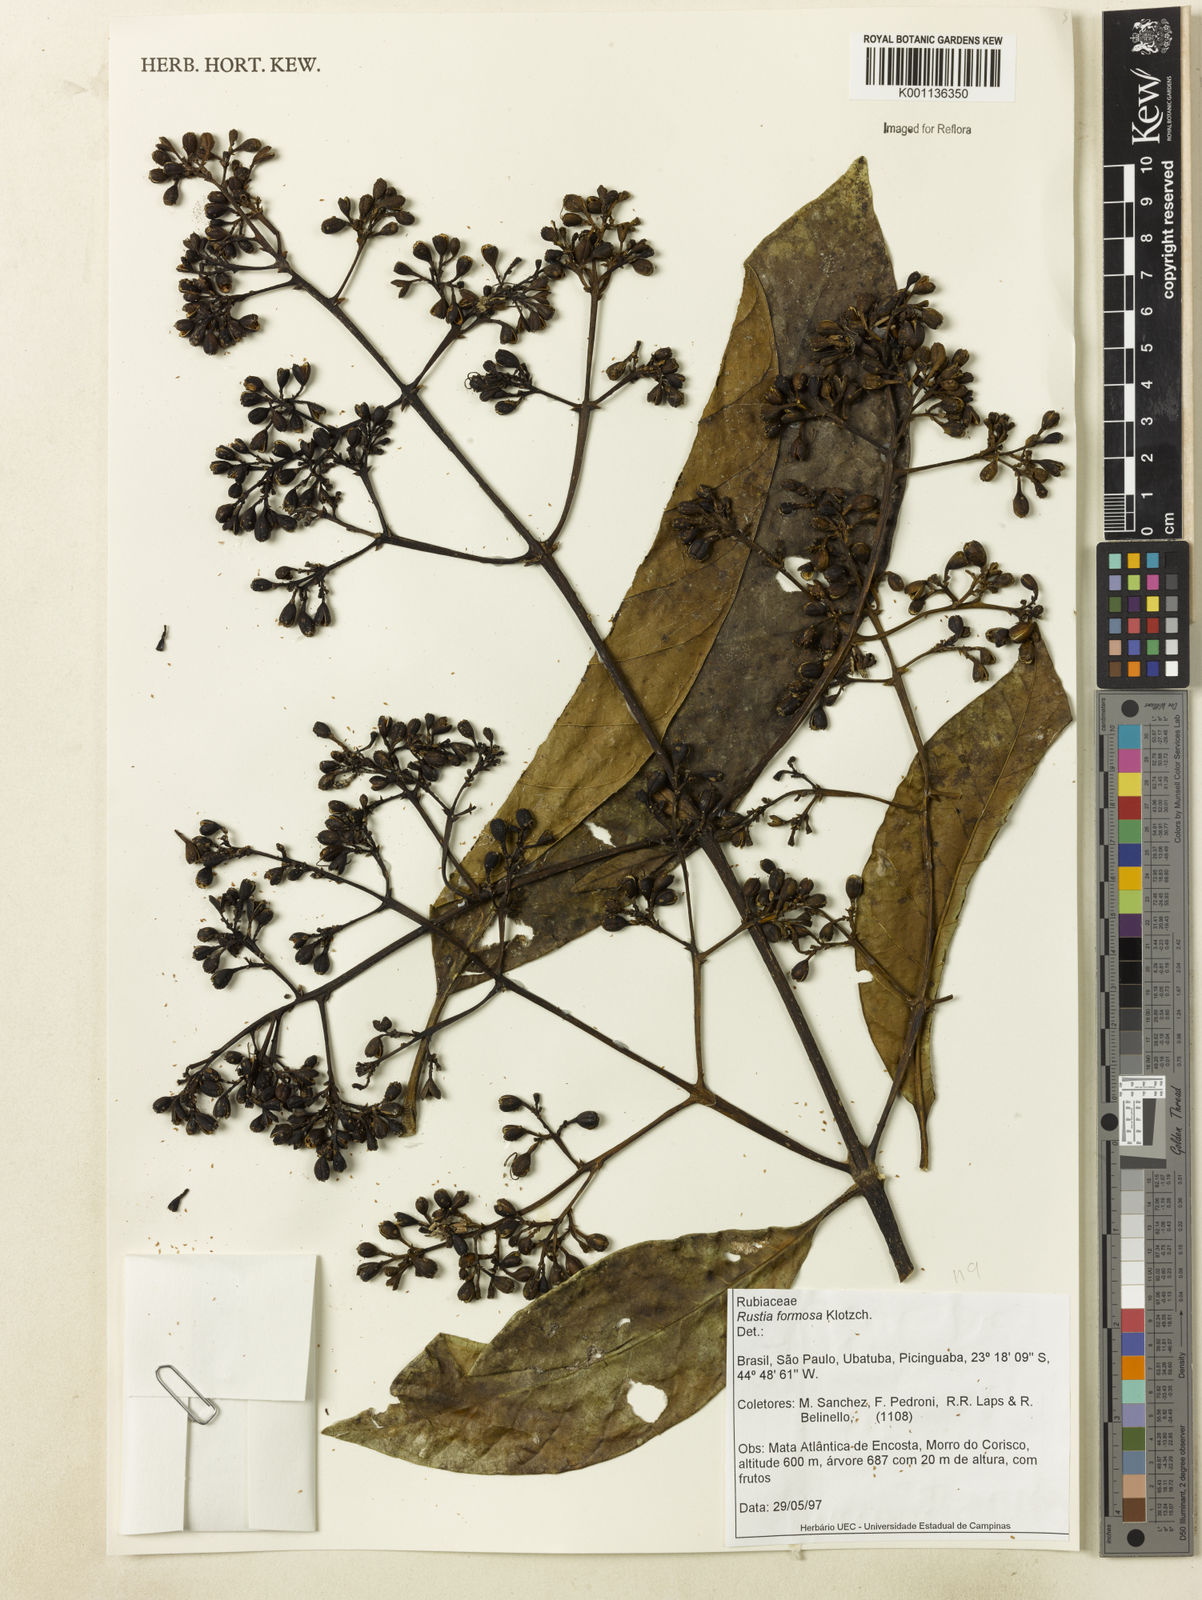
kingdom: Plantae
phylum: Tracheophyta
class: Magnoliopsida
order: Gentianales
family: Rubiaceae
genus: Rustia
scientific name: Rustia formosa
